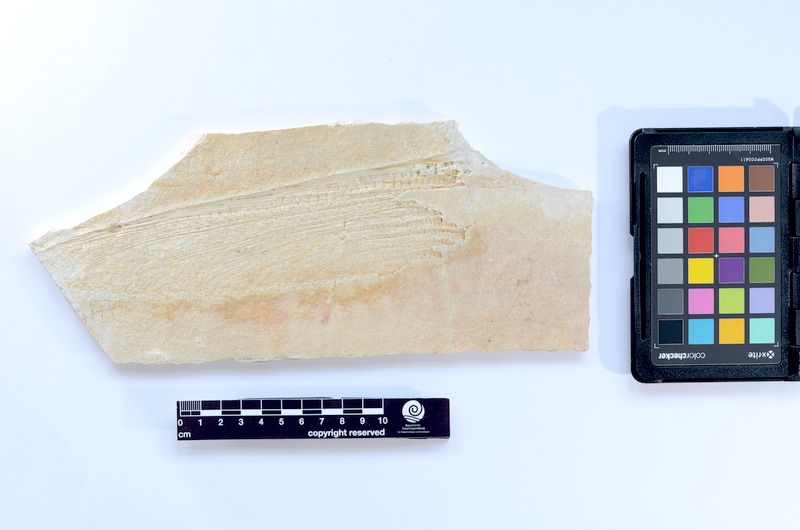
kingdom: Animalia
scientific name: Animalia
